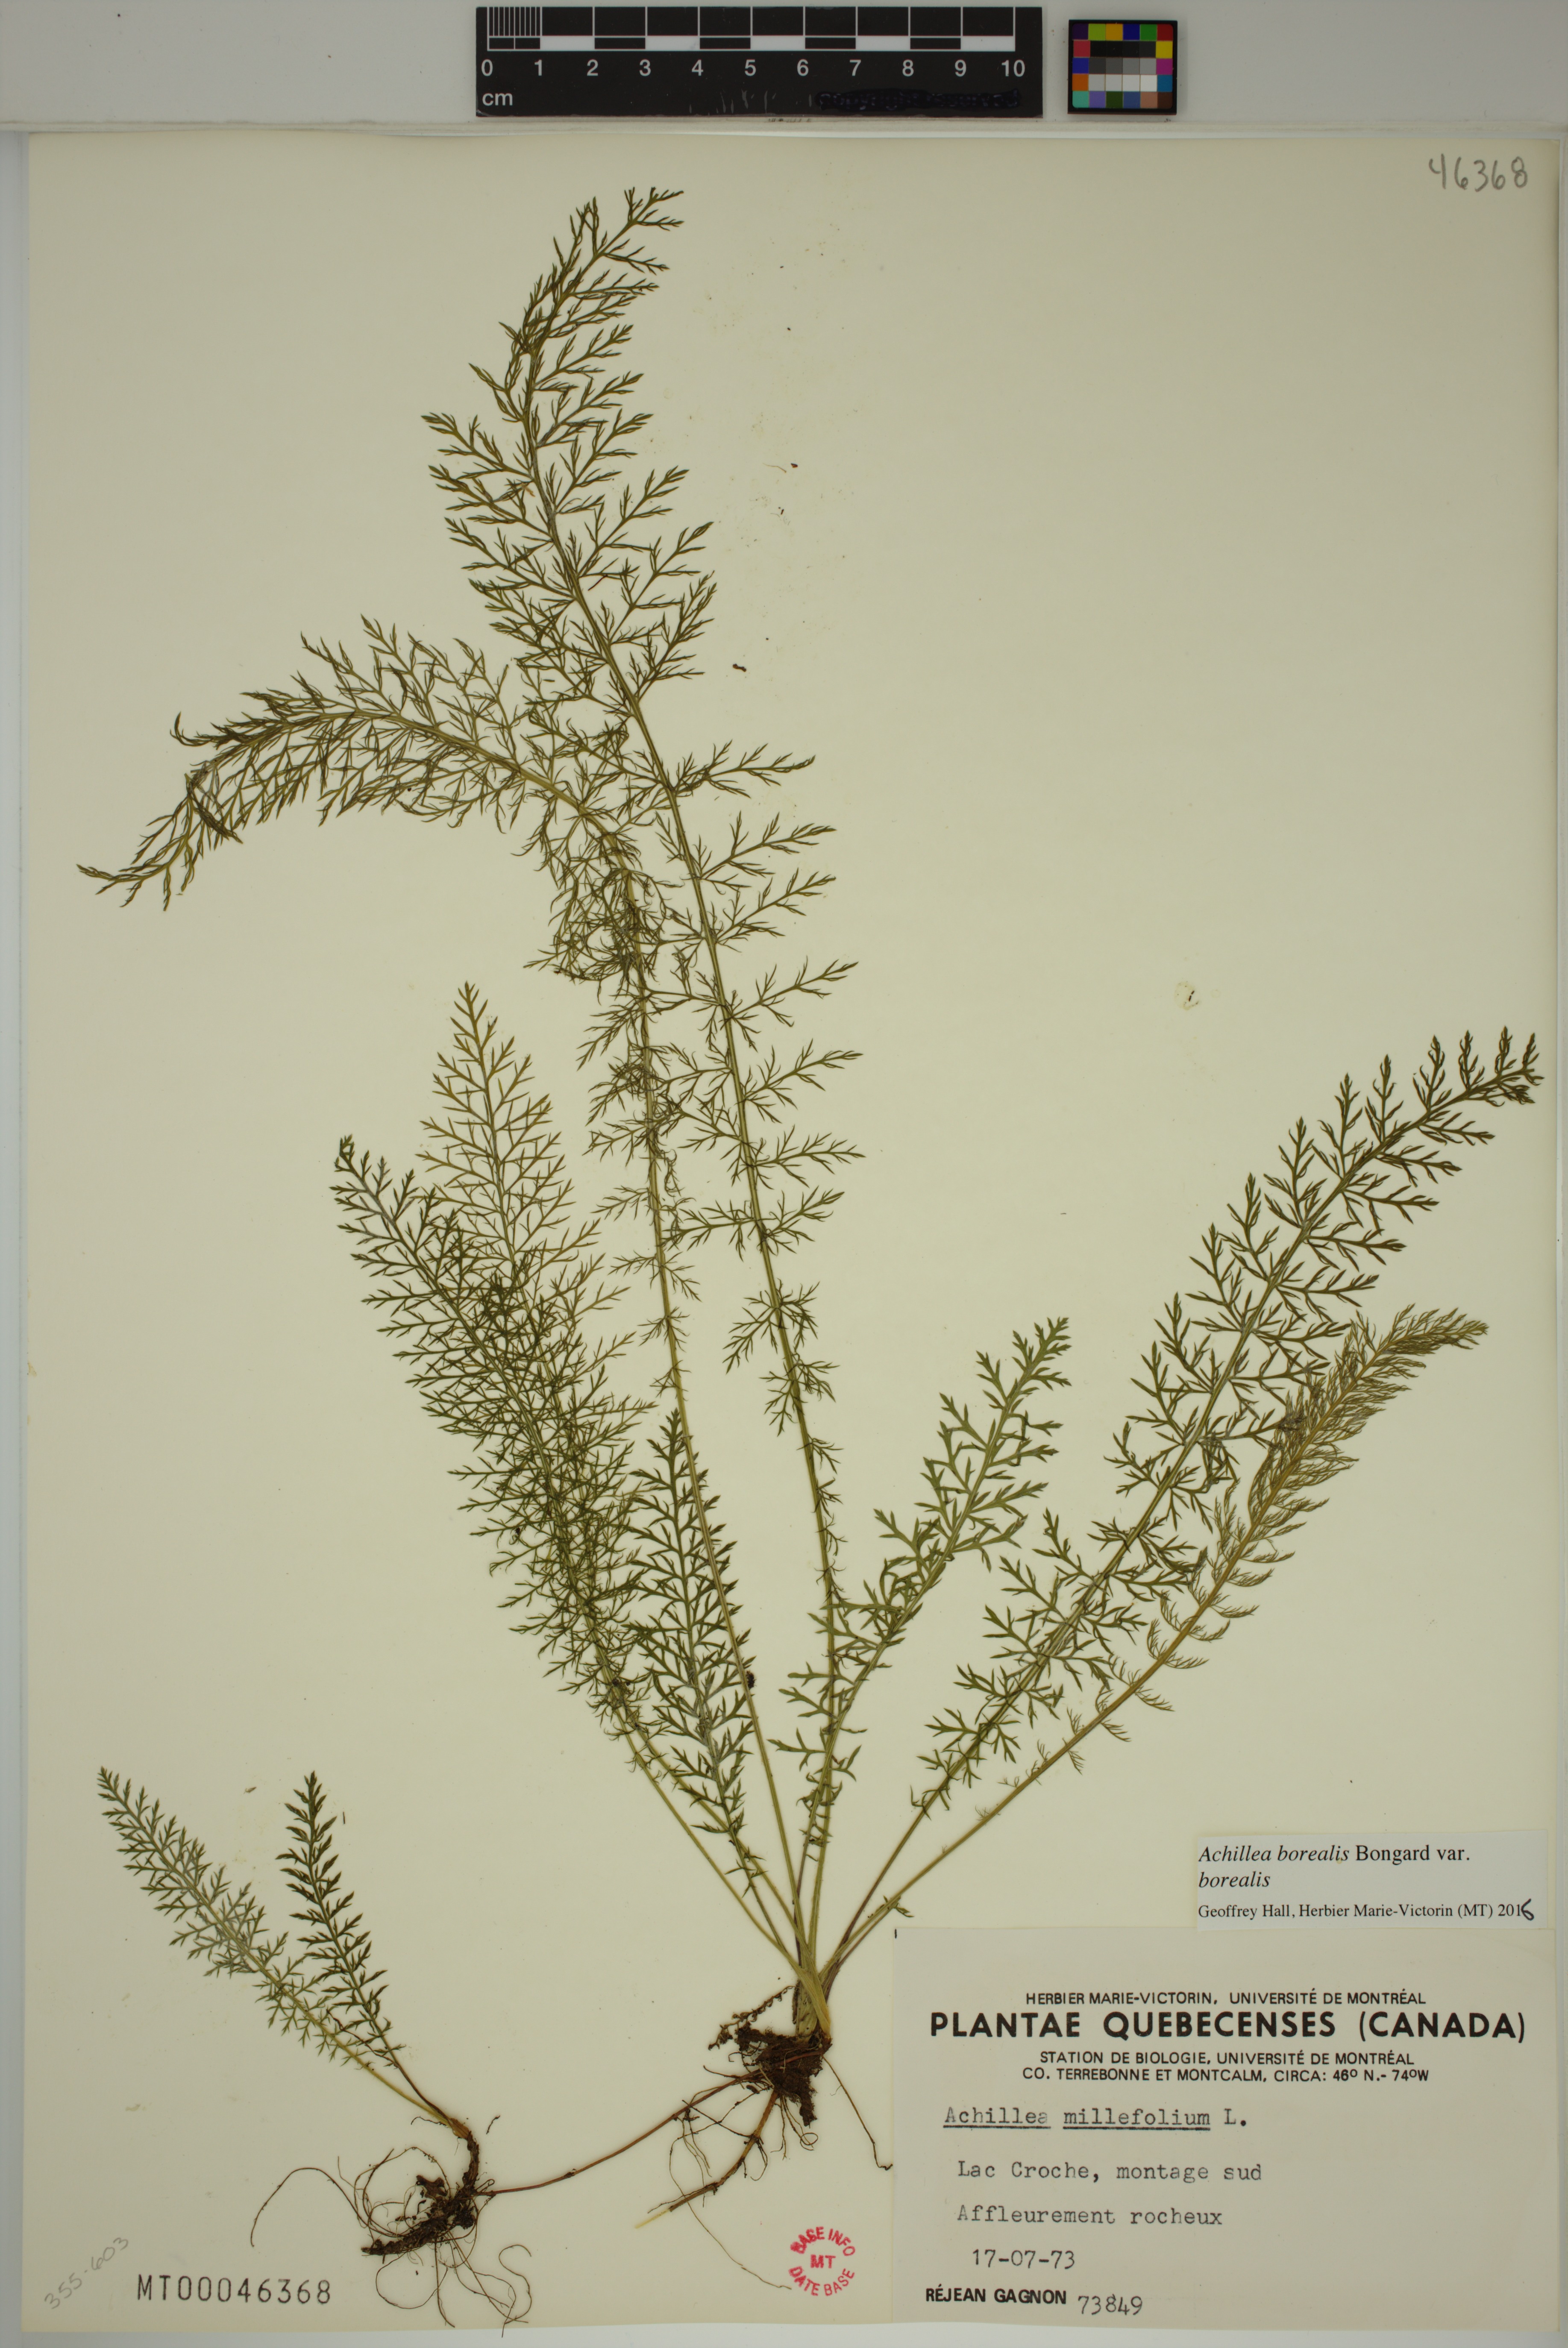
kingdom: Plantae
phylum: Tracheophyta
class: Magnoliopsida
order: Asterales
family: Asteraceae
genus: Achillea
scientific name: Achillea millefolium
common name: Yarrow
